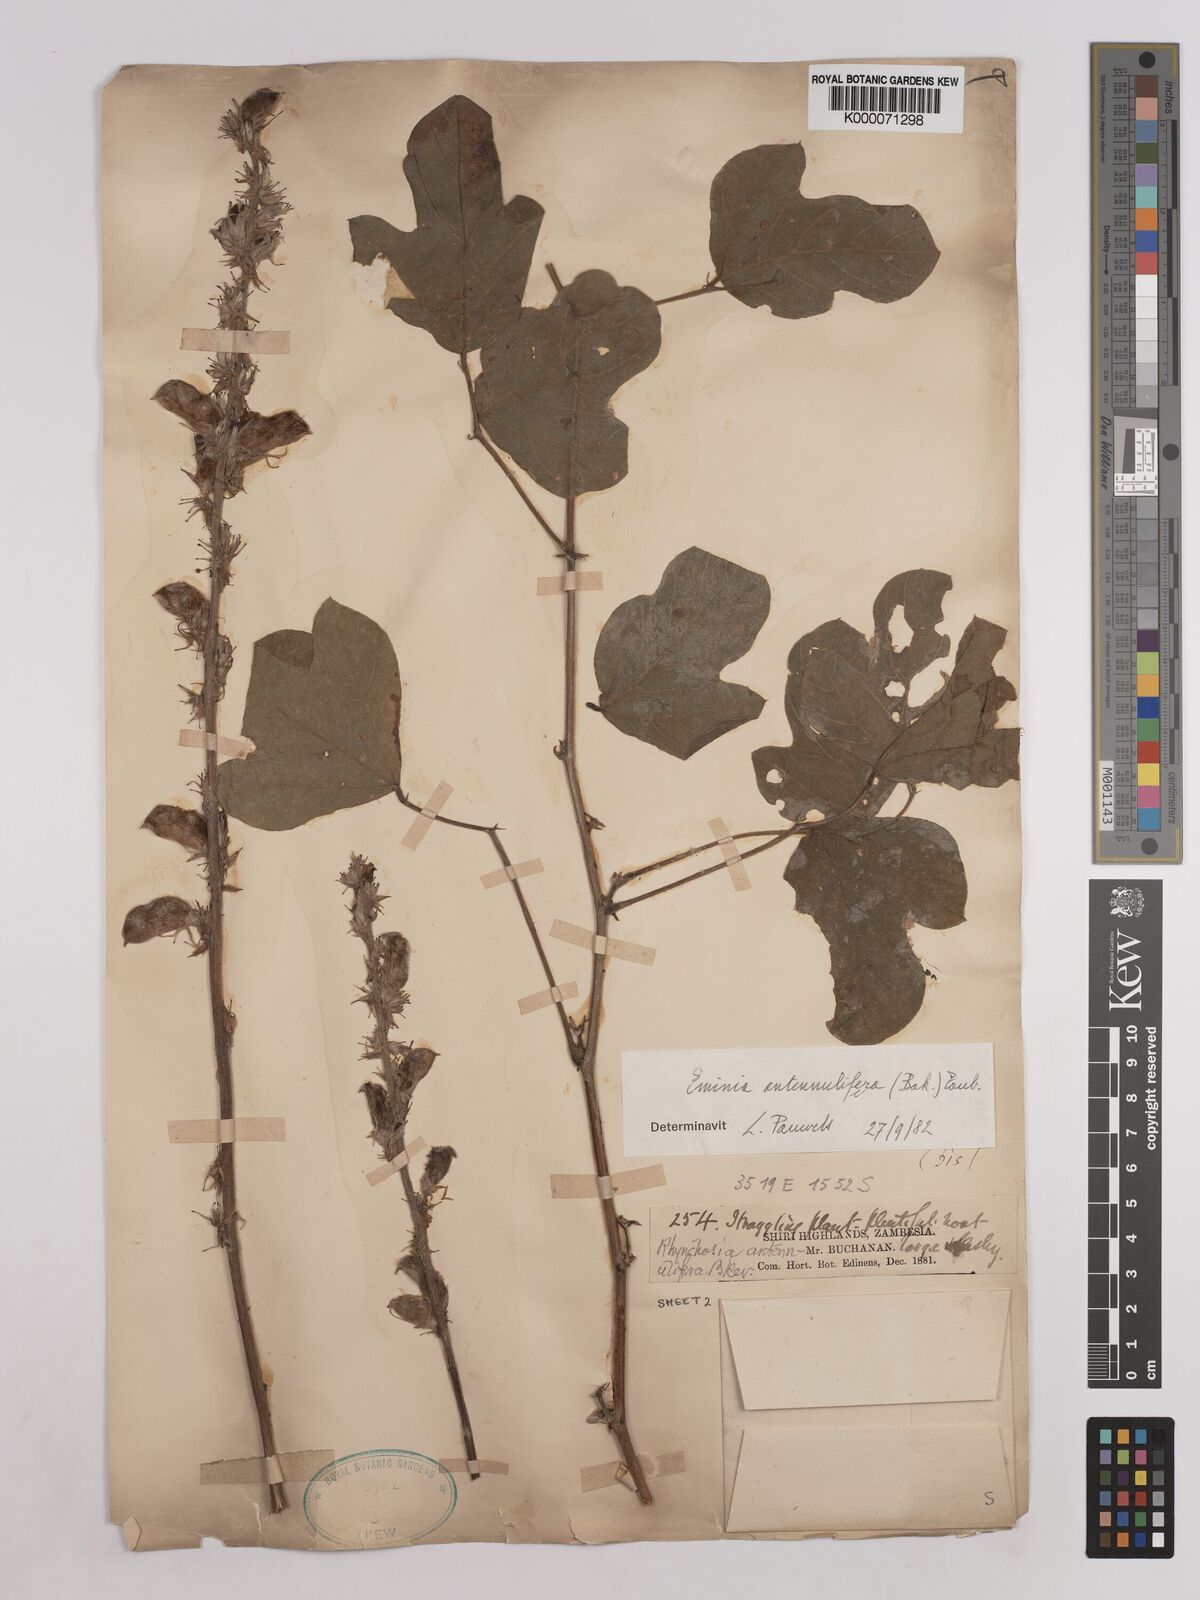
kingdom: Plantae
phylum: Tracheophyta
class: Magnoliopsida
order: Fabales
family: Fabaceae
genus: Eminia
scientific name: Eminia antennulifera
